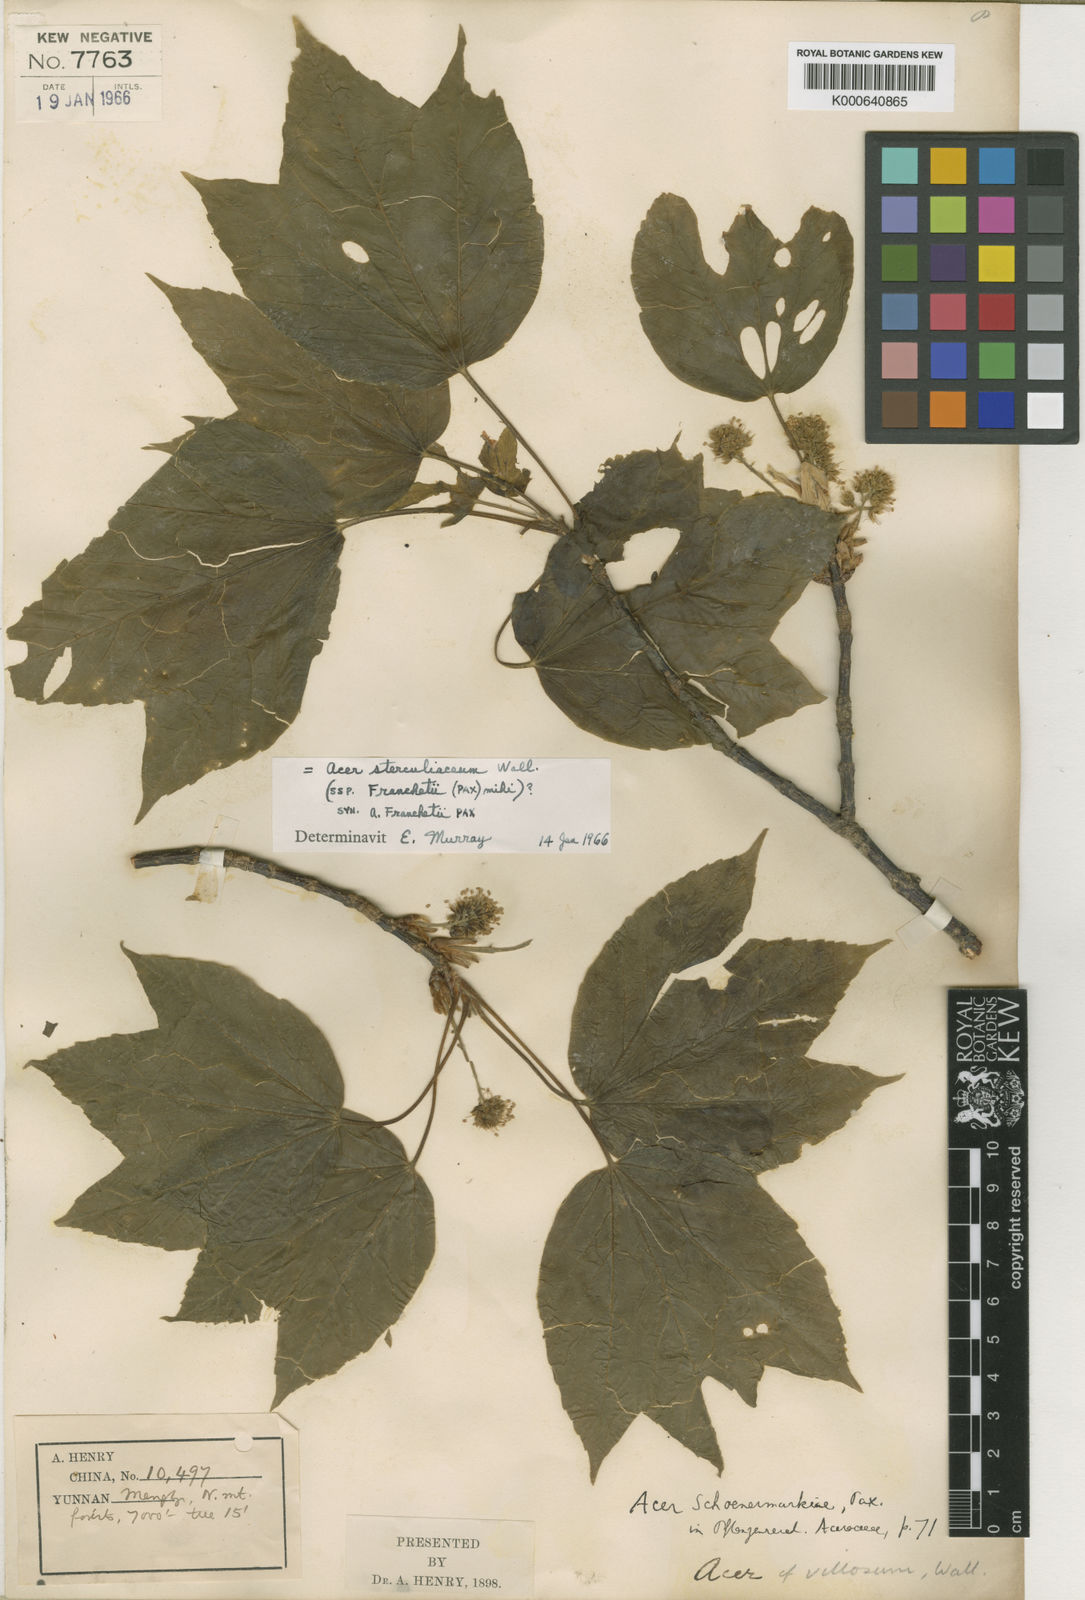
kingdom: Plantae
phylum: Tracheophyta
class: Magnoliopsida
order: Sapindales
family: Sapindaceae
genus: Acer
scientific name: Acer sterculiaceum
